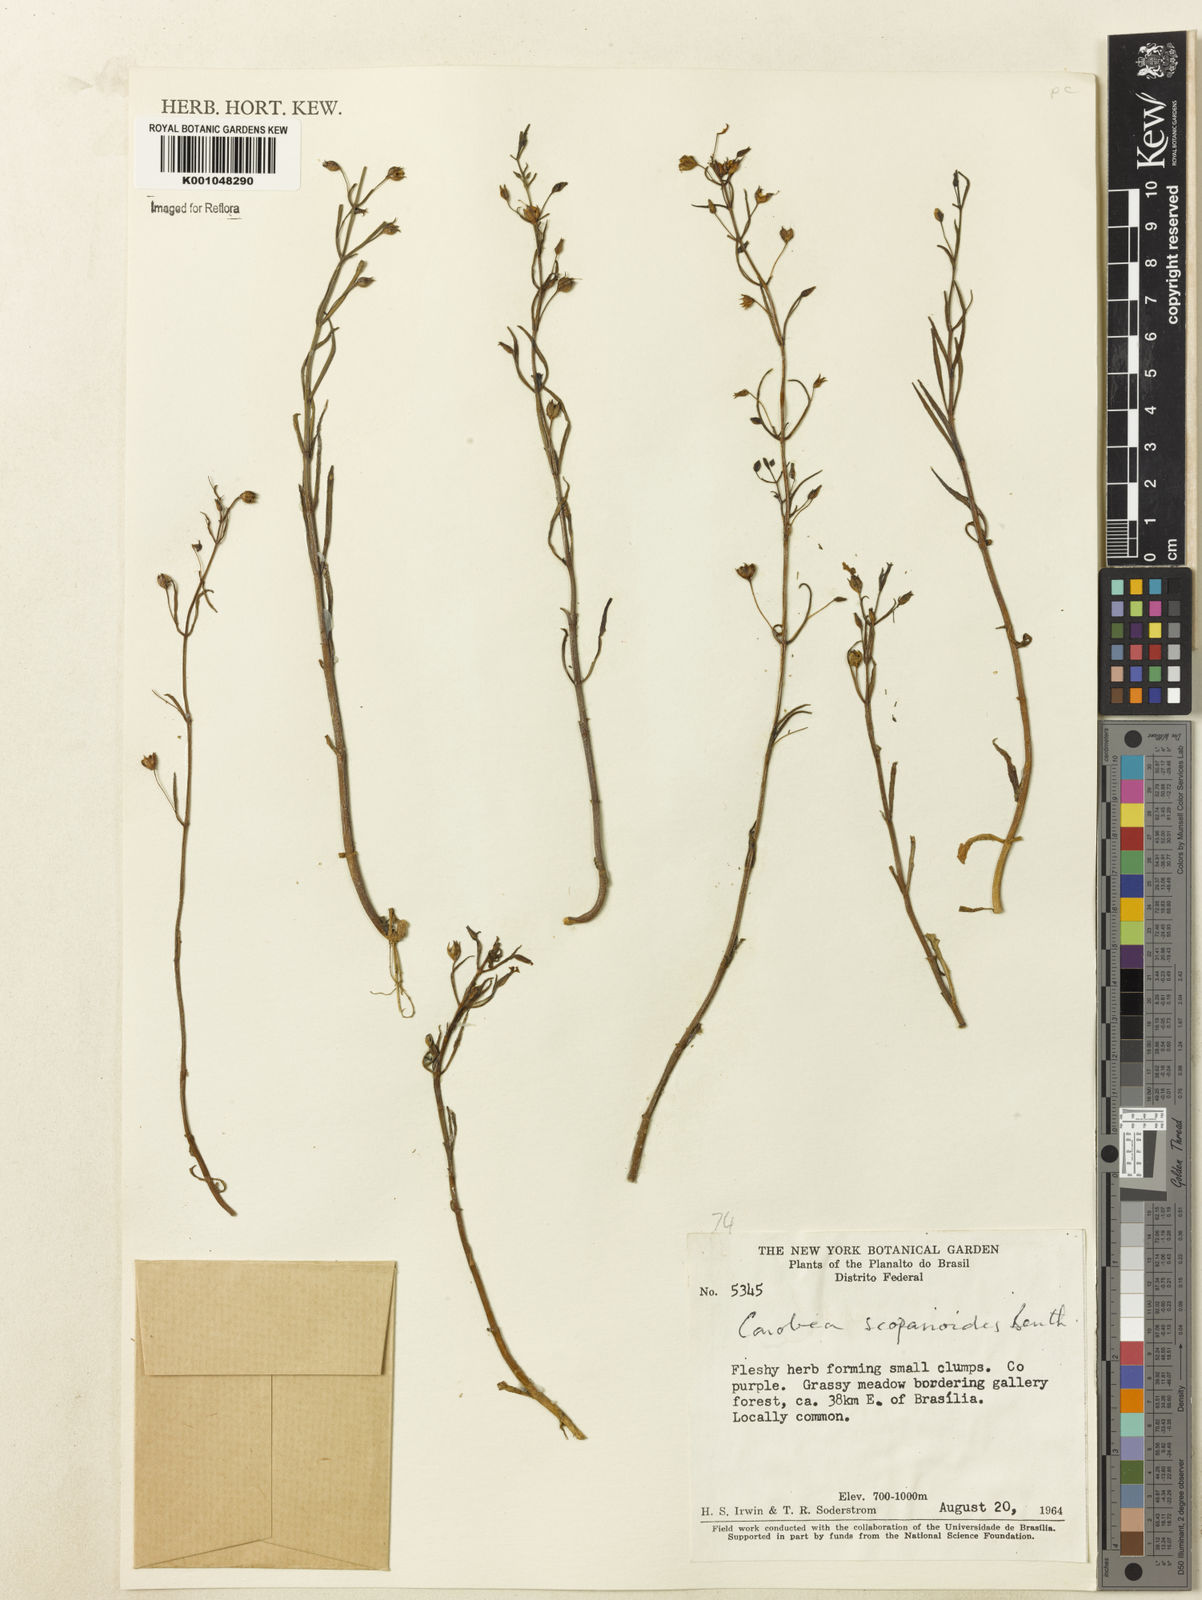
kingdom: Plantae
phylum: Tracheophyta
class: Magnoliopsida
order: Lamiales
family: Plantaginaceae
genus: Conobea
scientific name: Conobea scoparioides
